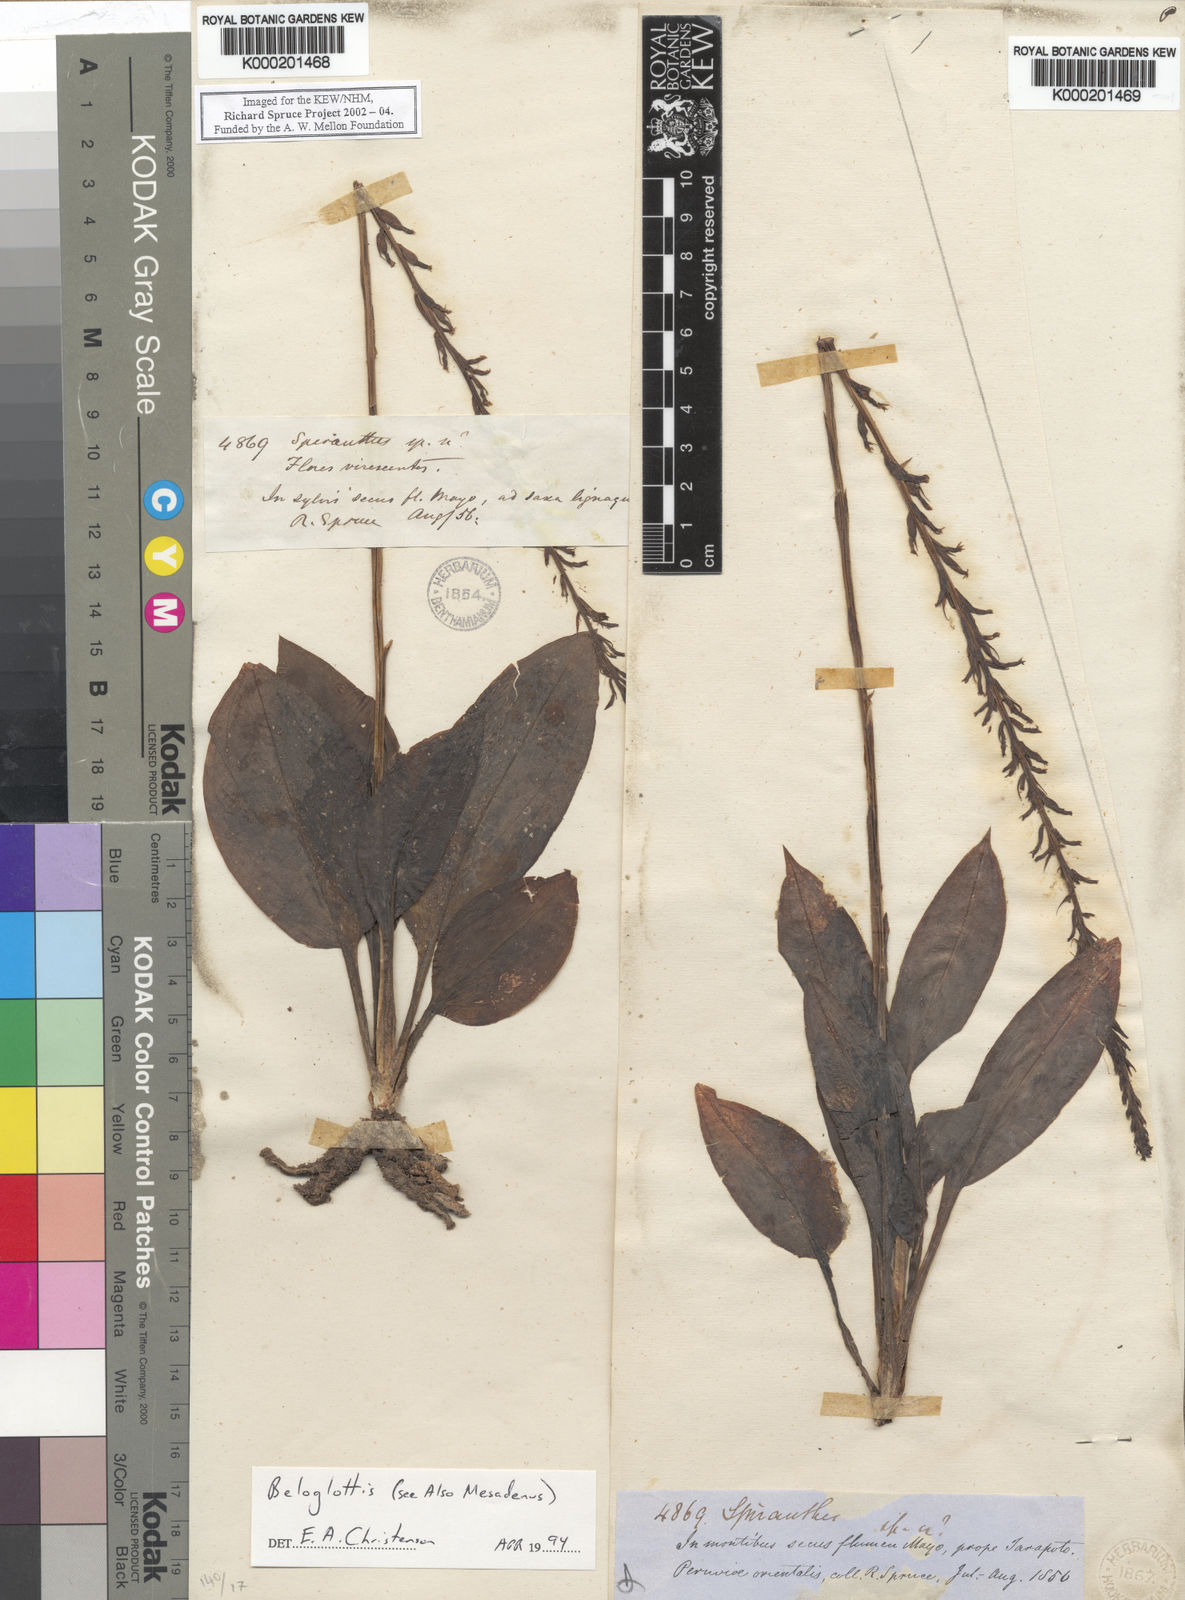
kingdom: Plantae
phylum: Tracheophyta
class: Liliopsida
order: Asparagales
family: Orchidaceae
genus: Beloglottis
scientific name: Beloglottis
